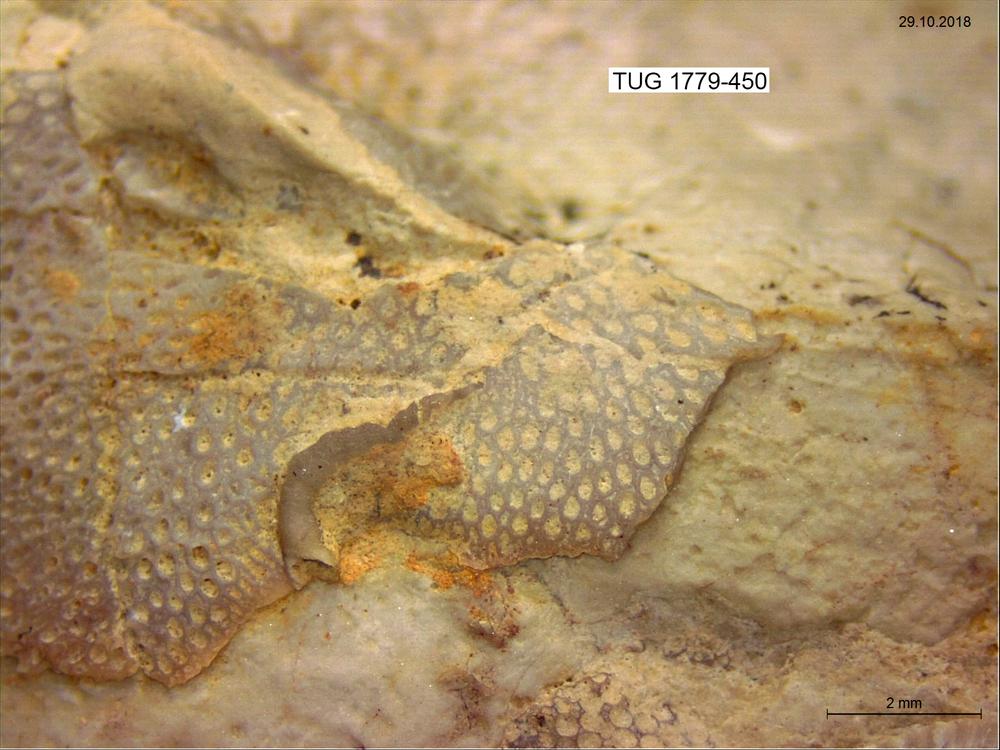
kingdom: Animalia
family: Cornulitidae
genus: Cornulites
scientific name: Cornulites
